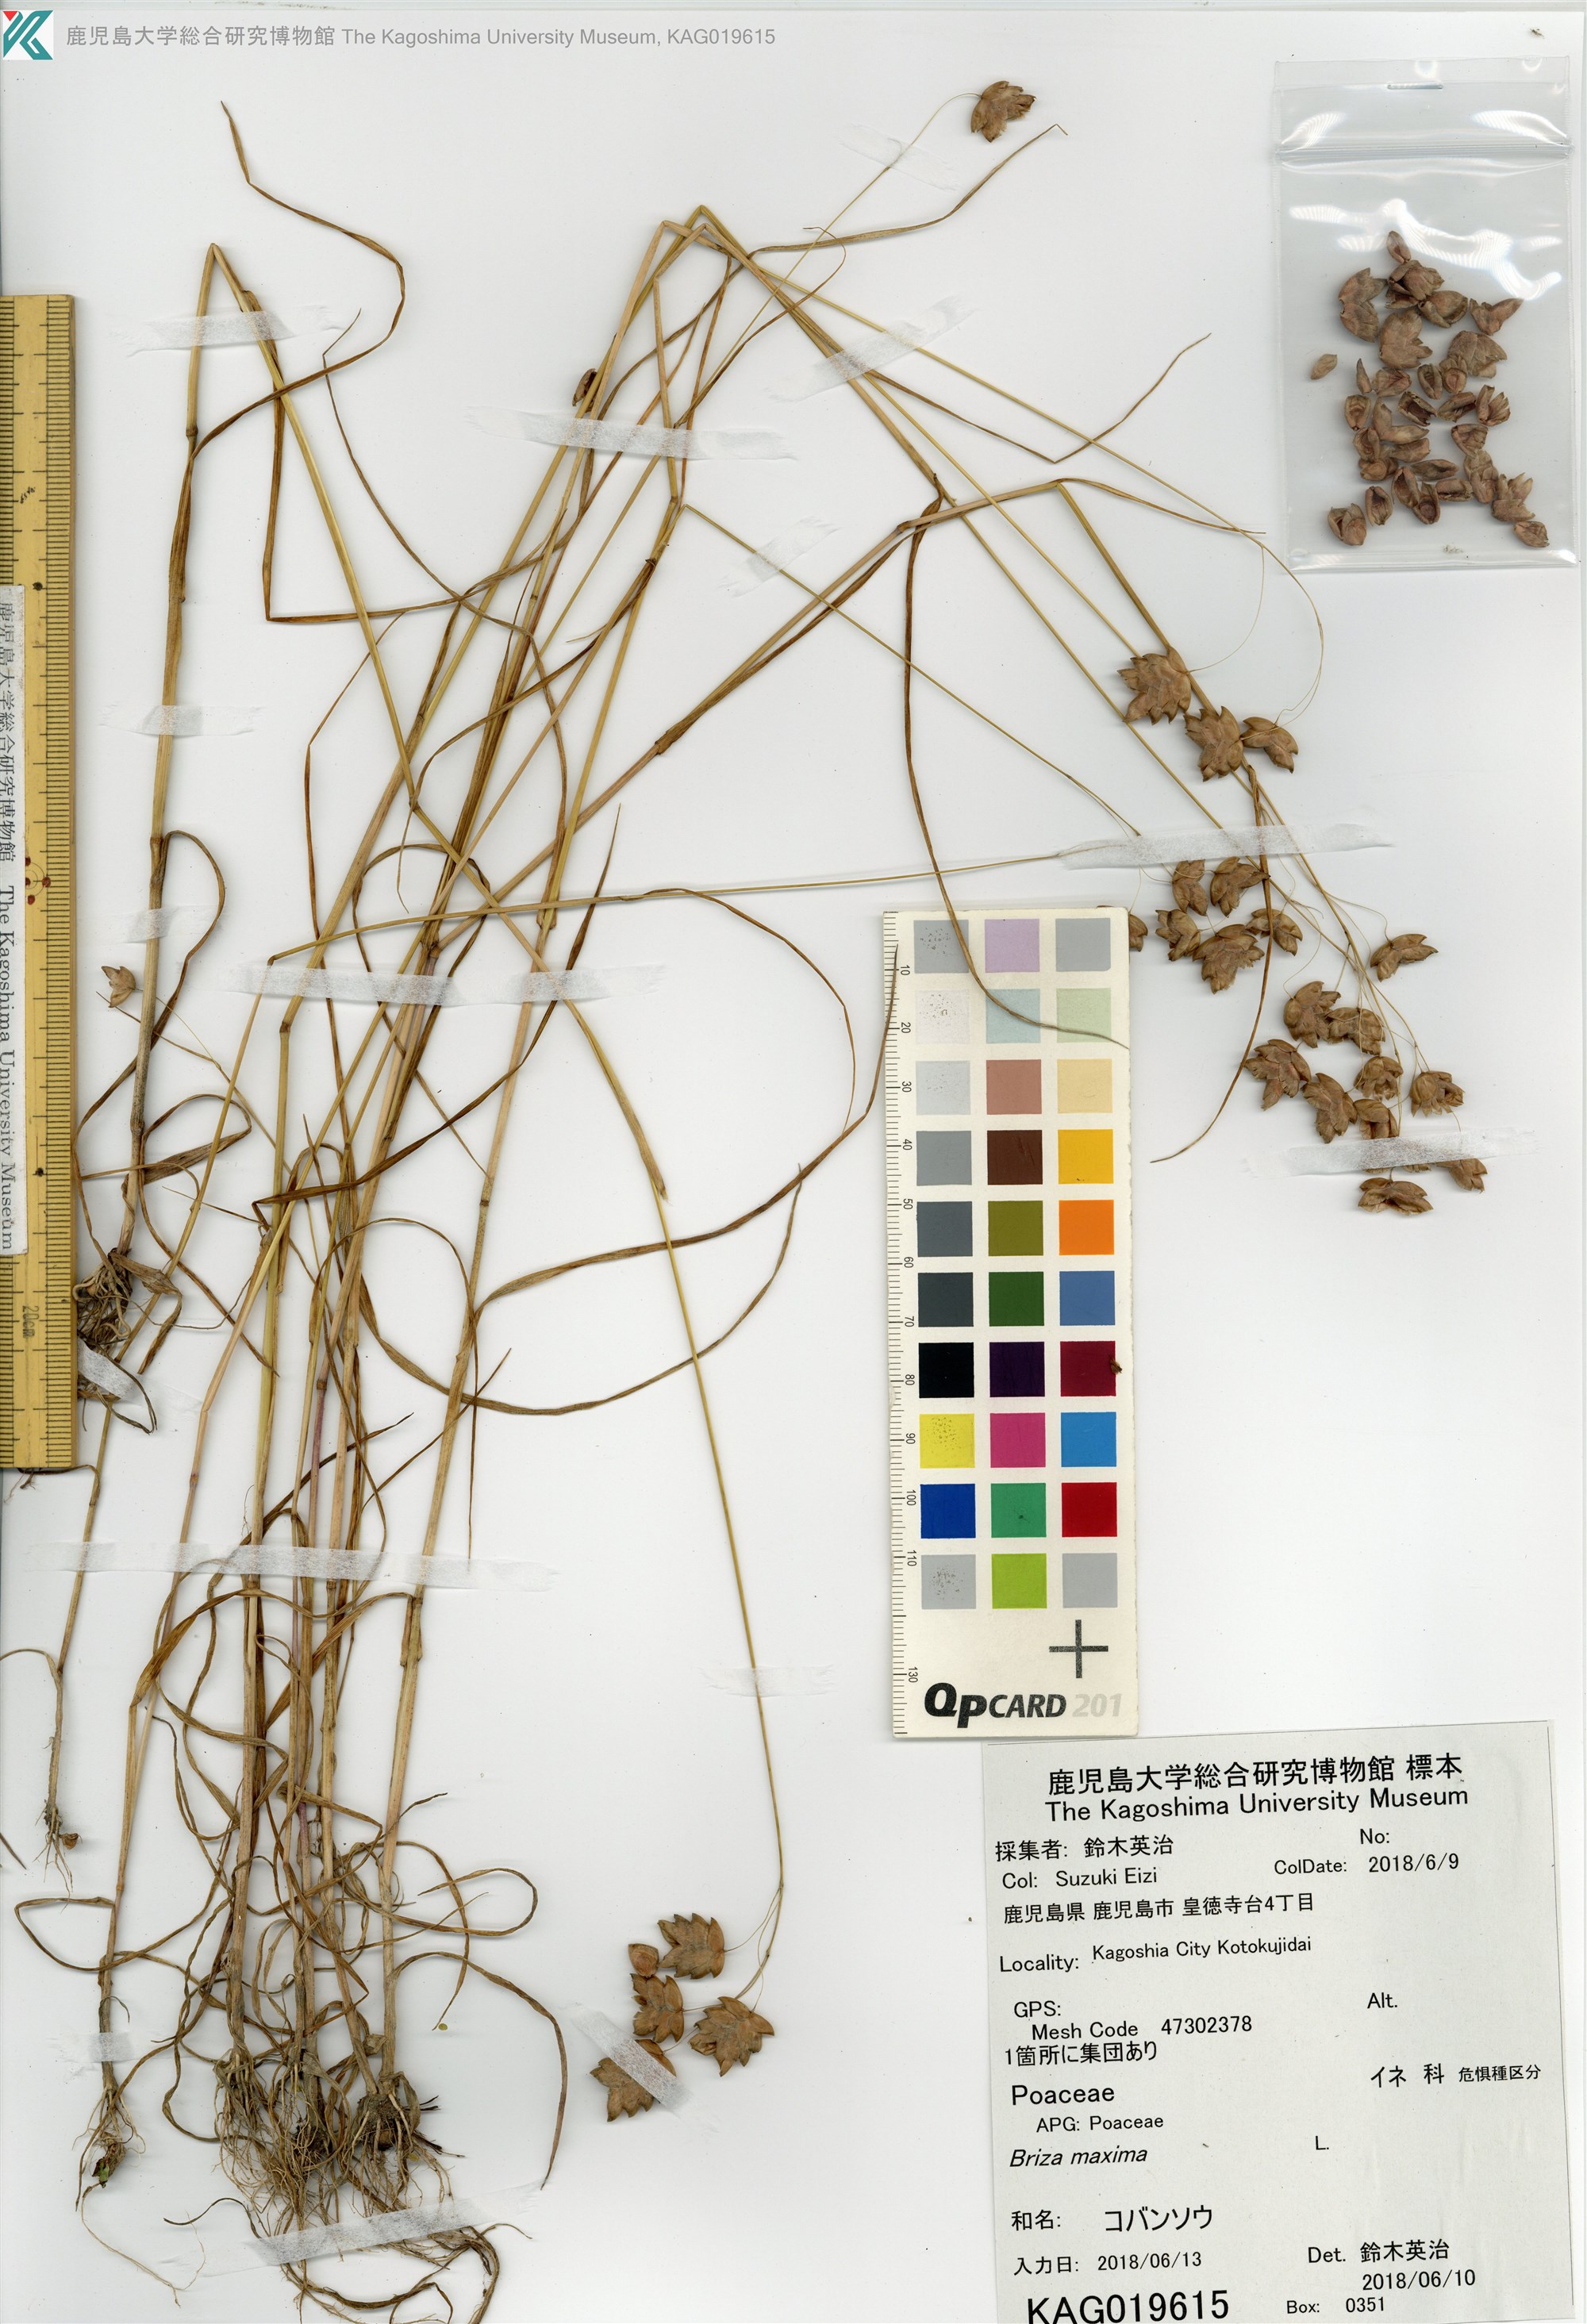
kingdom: Plantae
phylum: Tracheophyta
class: Liliopsida
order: Poales
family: Poaceae
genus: Briza
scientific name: Briza maxima
